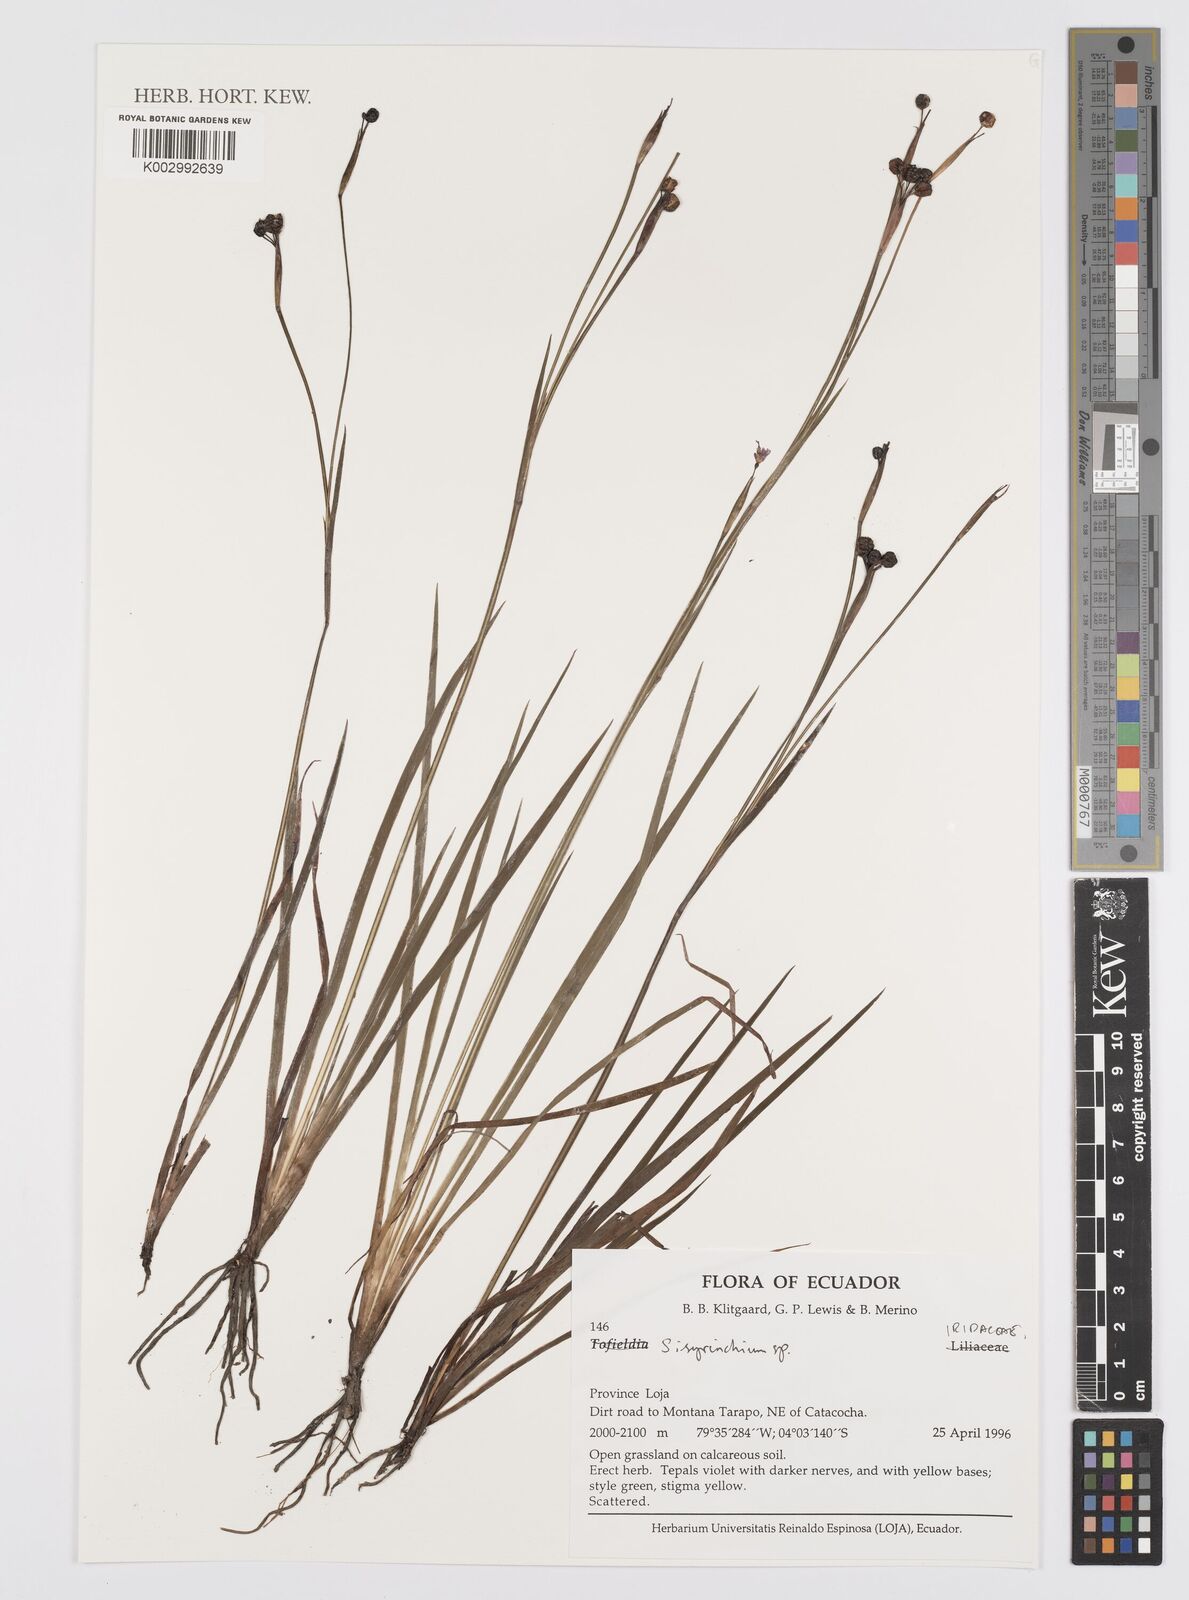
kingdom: Plantae
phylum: Tracheophyta
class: Liliopsida
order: Asparagales
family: Iridaceae
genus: Sisyrinchium
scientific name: Sisyrinchium
